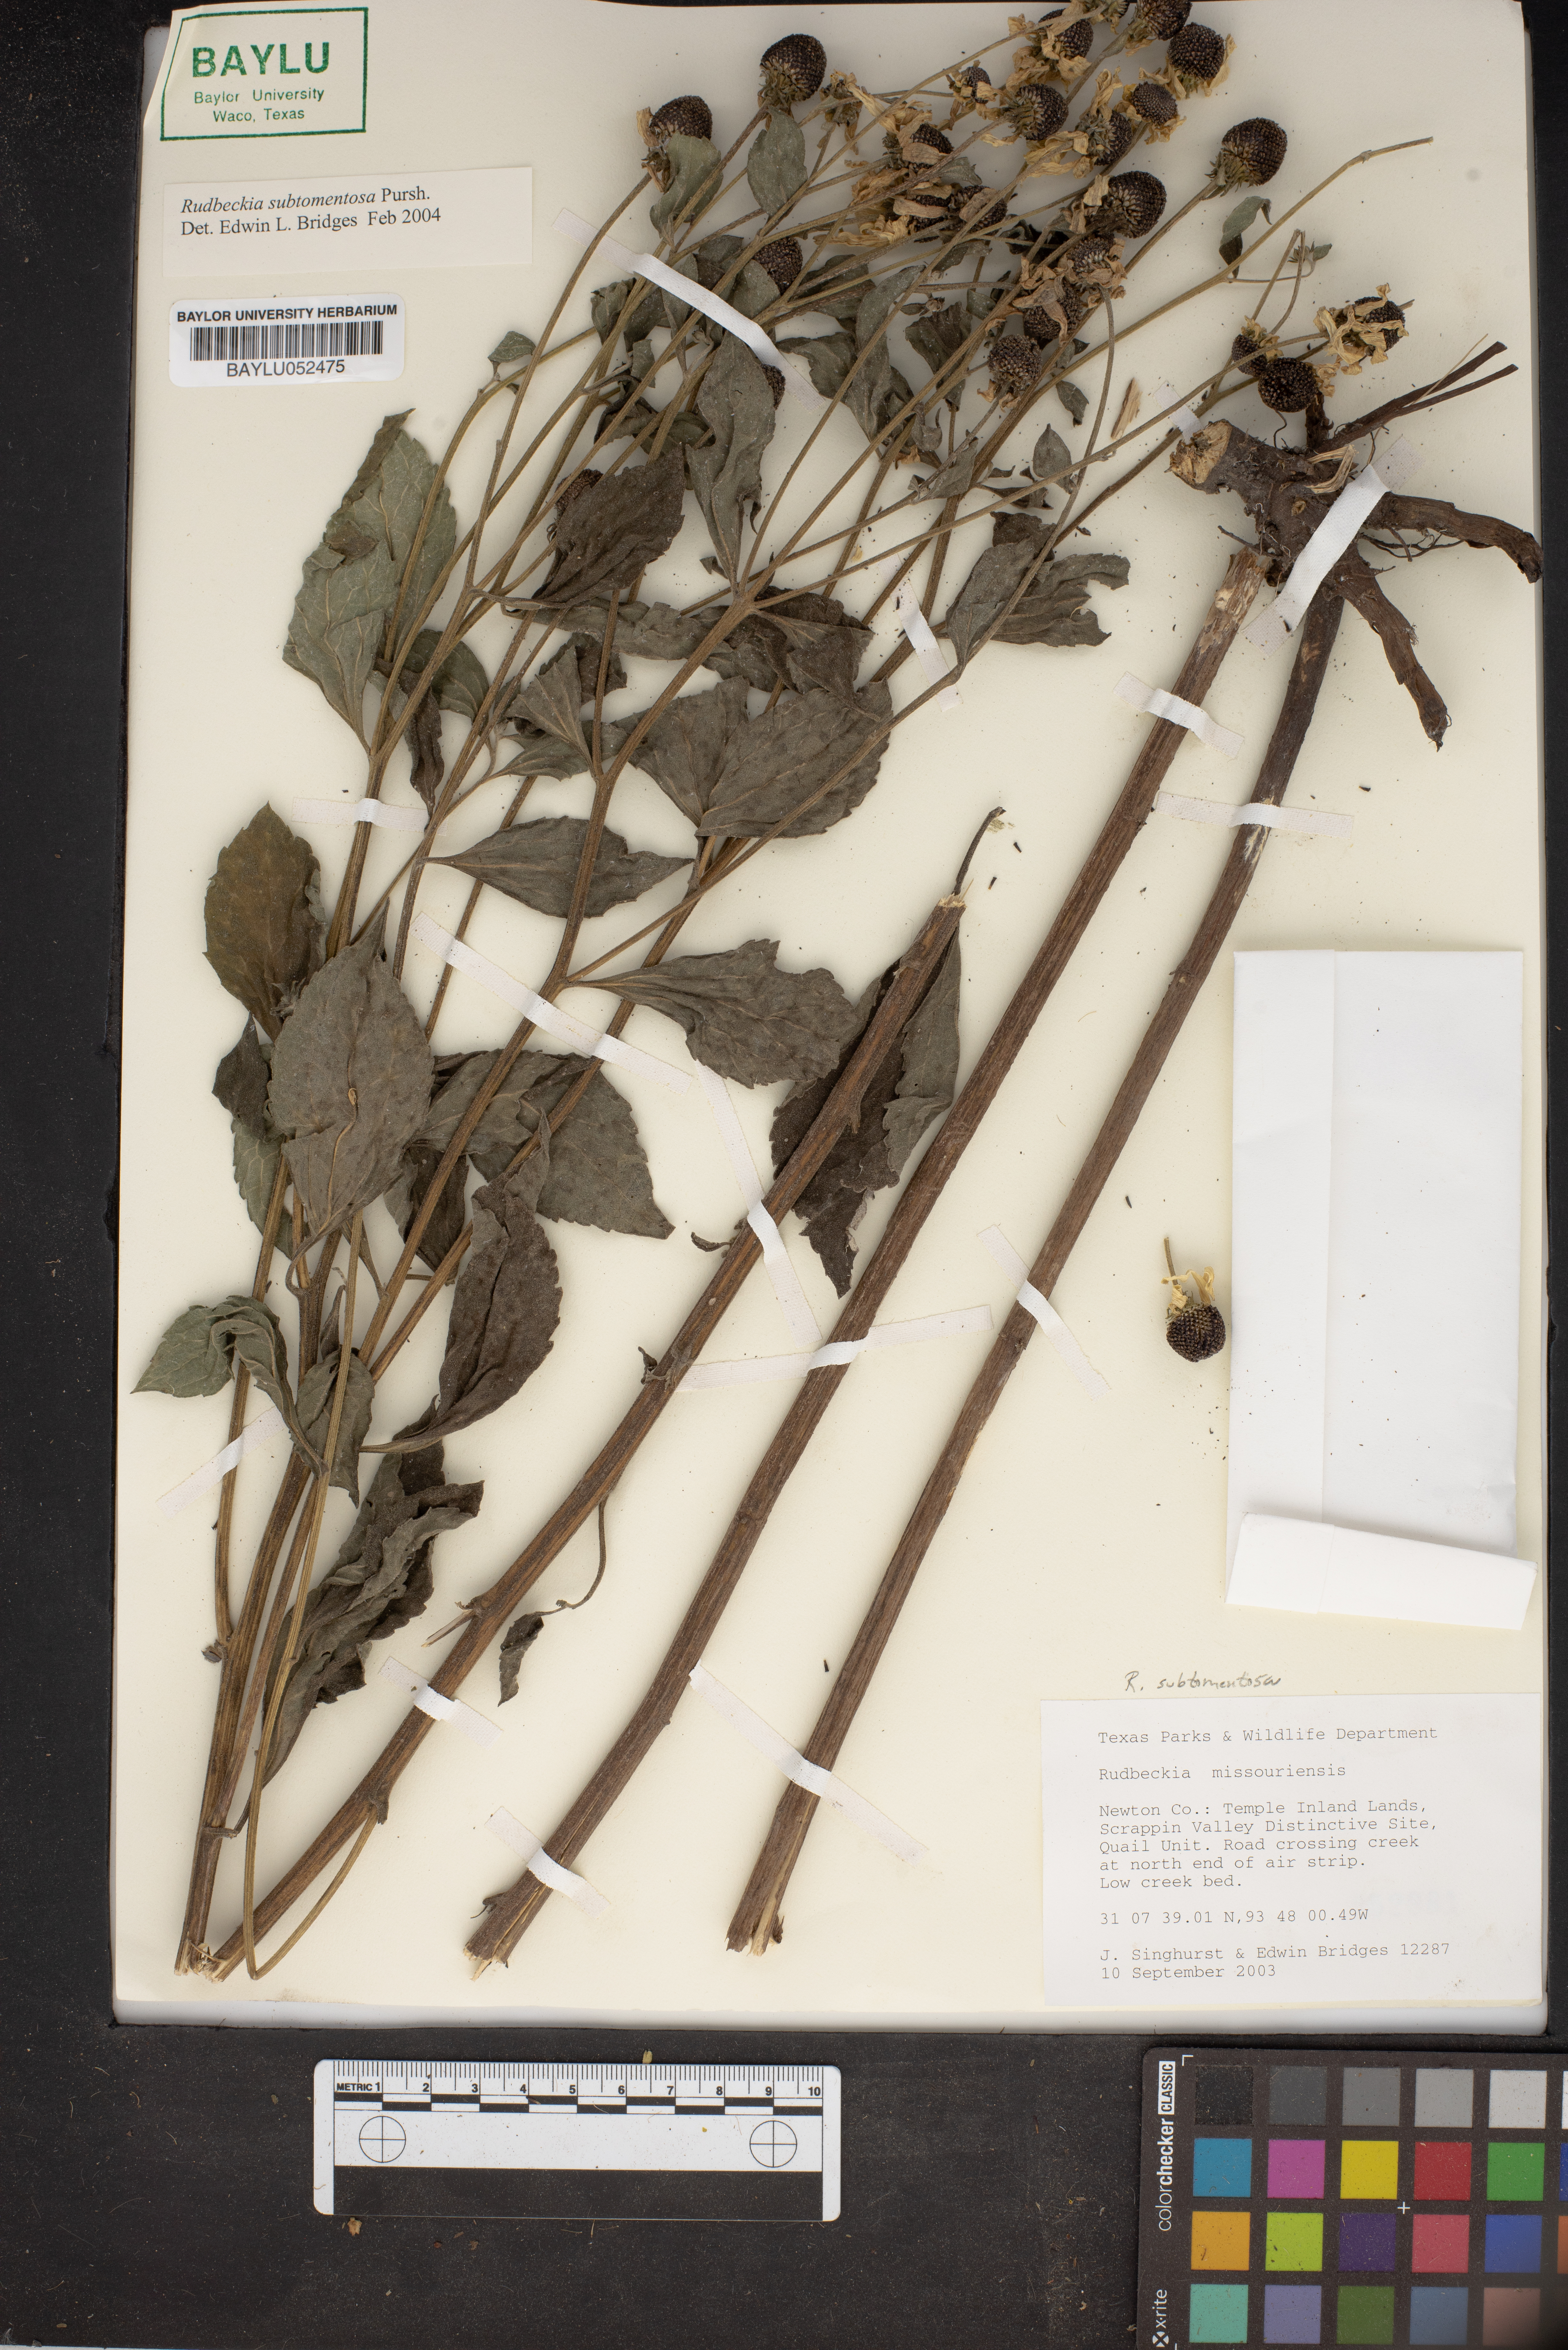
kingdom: Plantae
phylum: Tracheophyta
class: Magnoliopsida
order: Asterales
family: Asteraceae
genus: Rudbeckia
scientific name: Rudbeckia missouriensis
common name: Missouri coneflower
